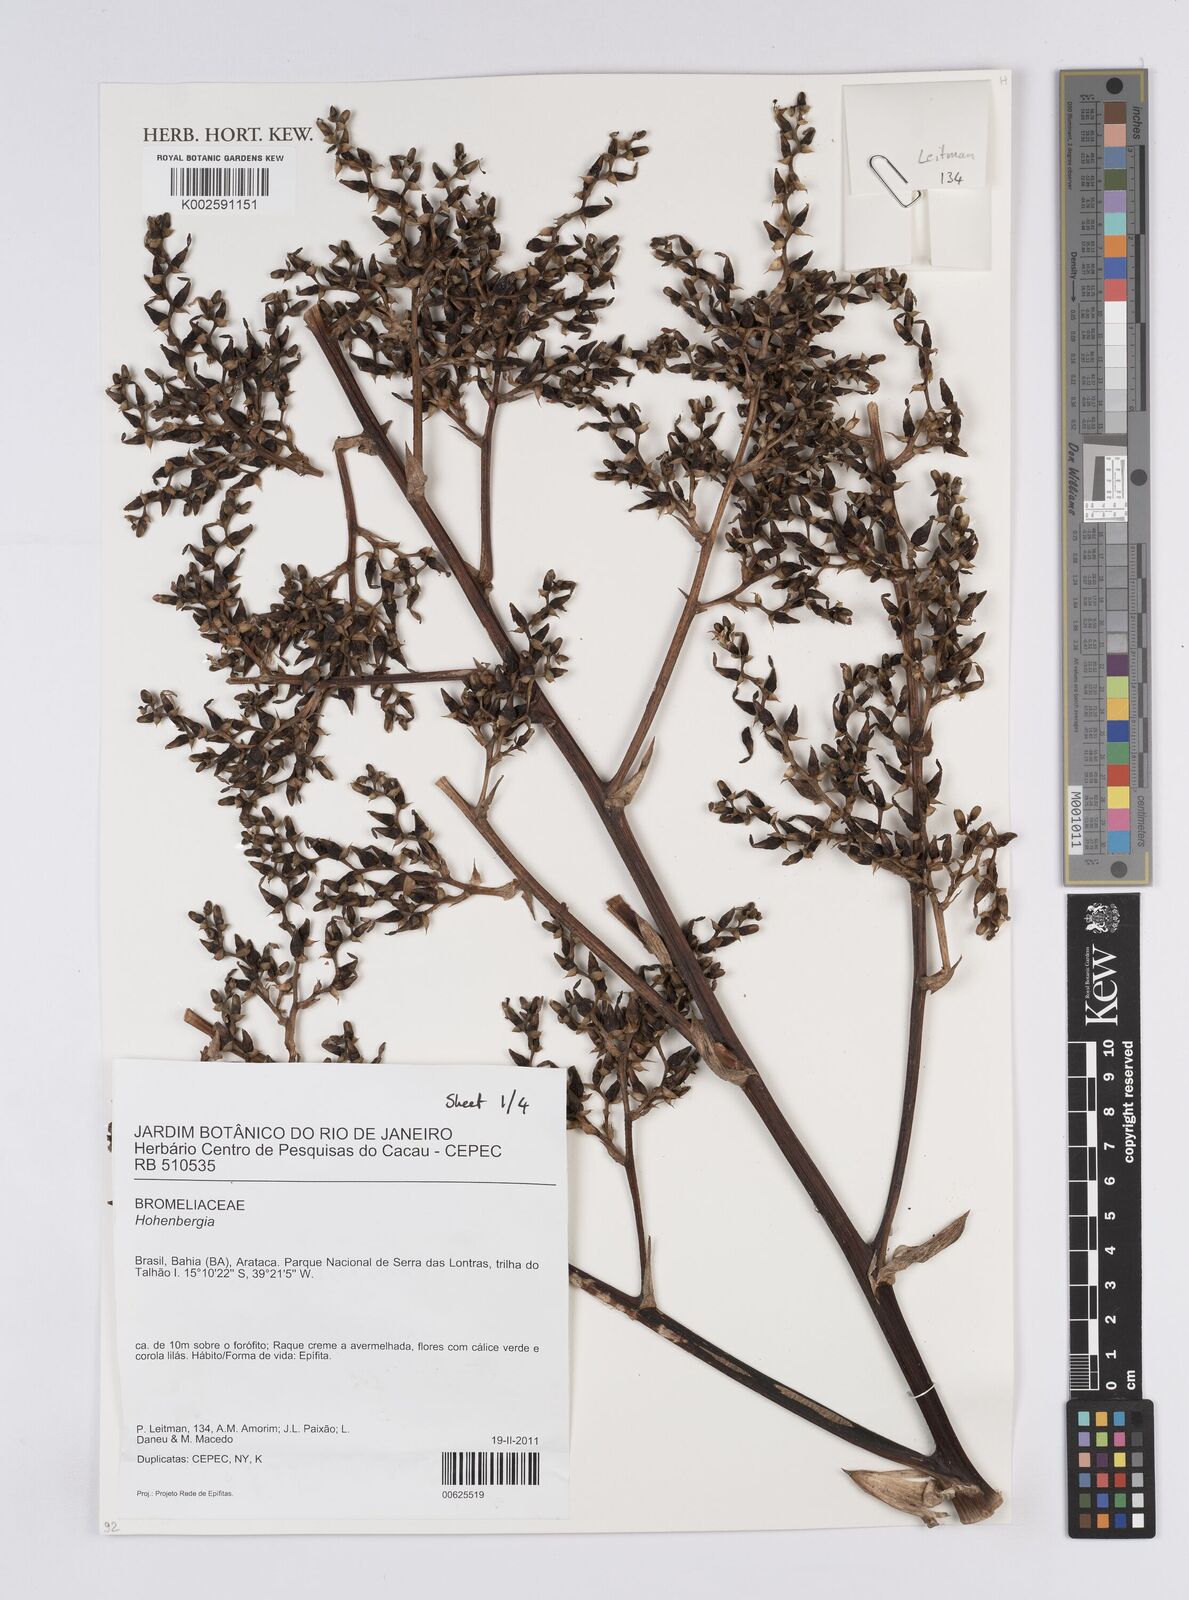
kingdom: Plantae
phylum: Tracheophyta
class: Liliopsida
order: Poales
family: Bromeliaceae
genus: Hohenbergia
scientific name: Hohenbergia
